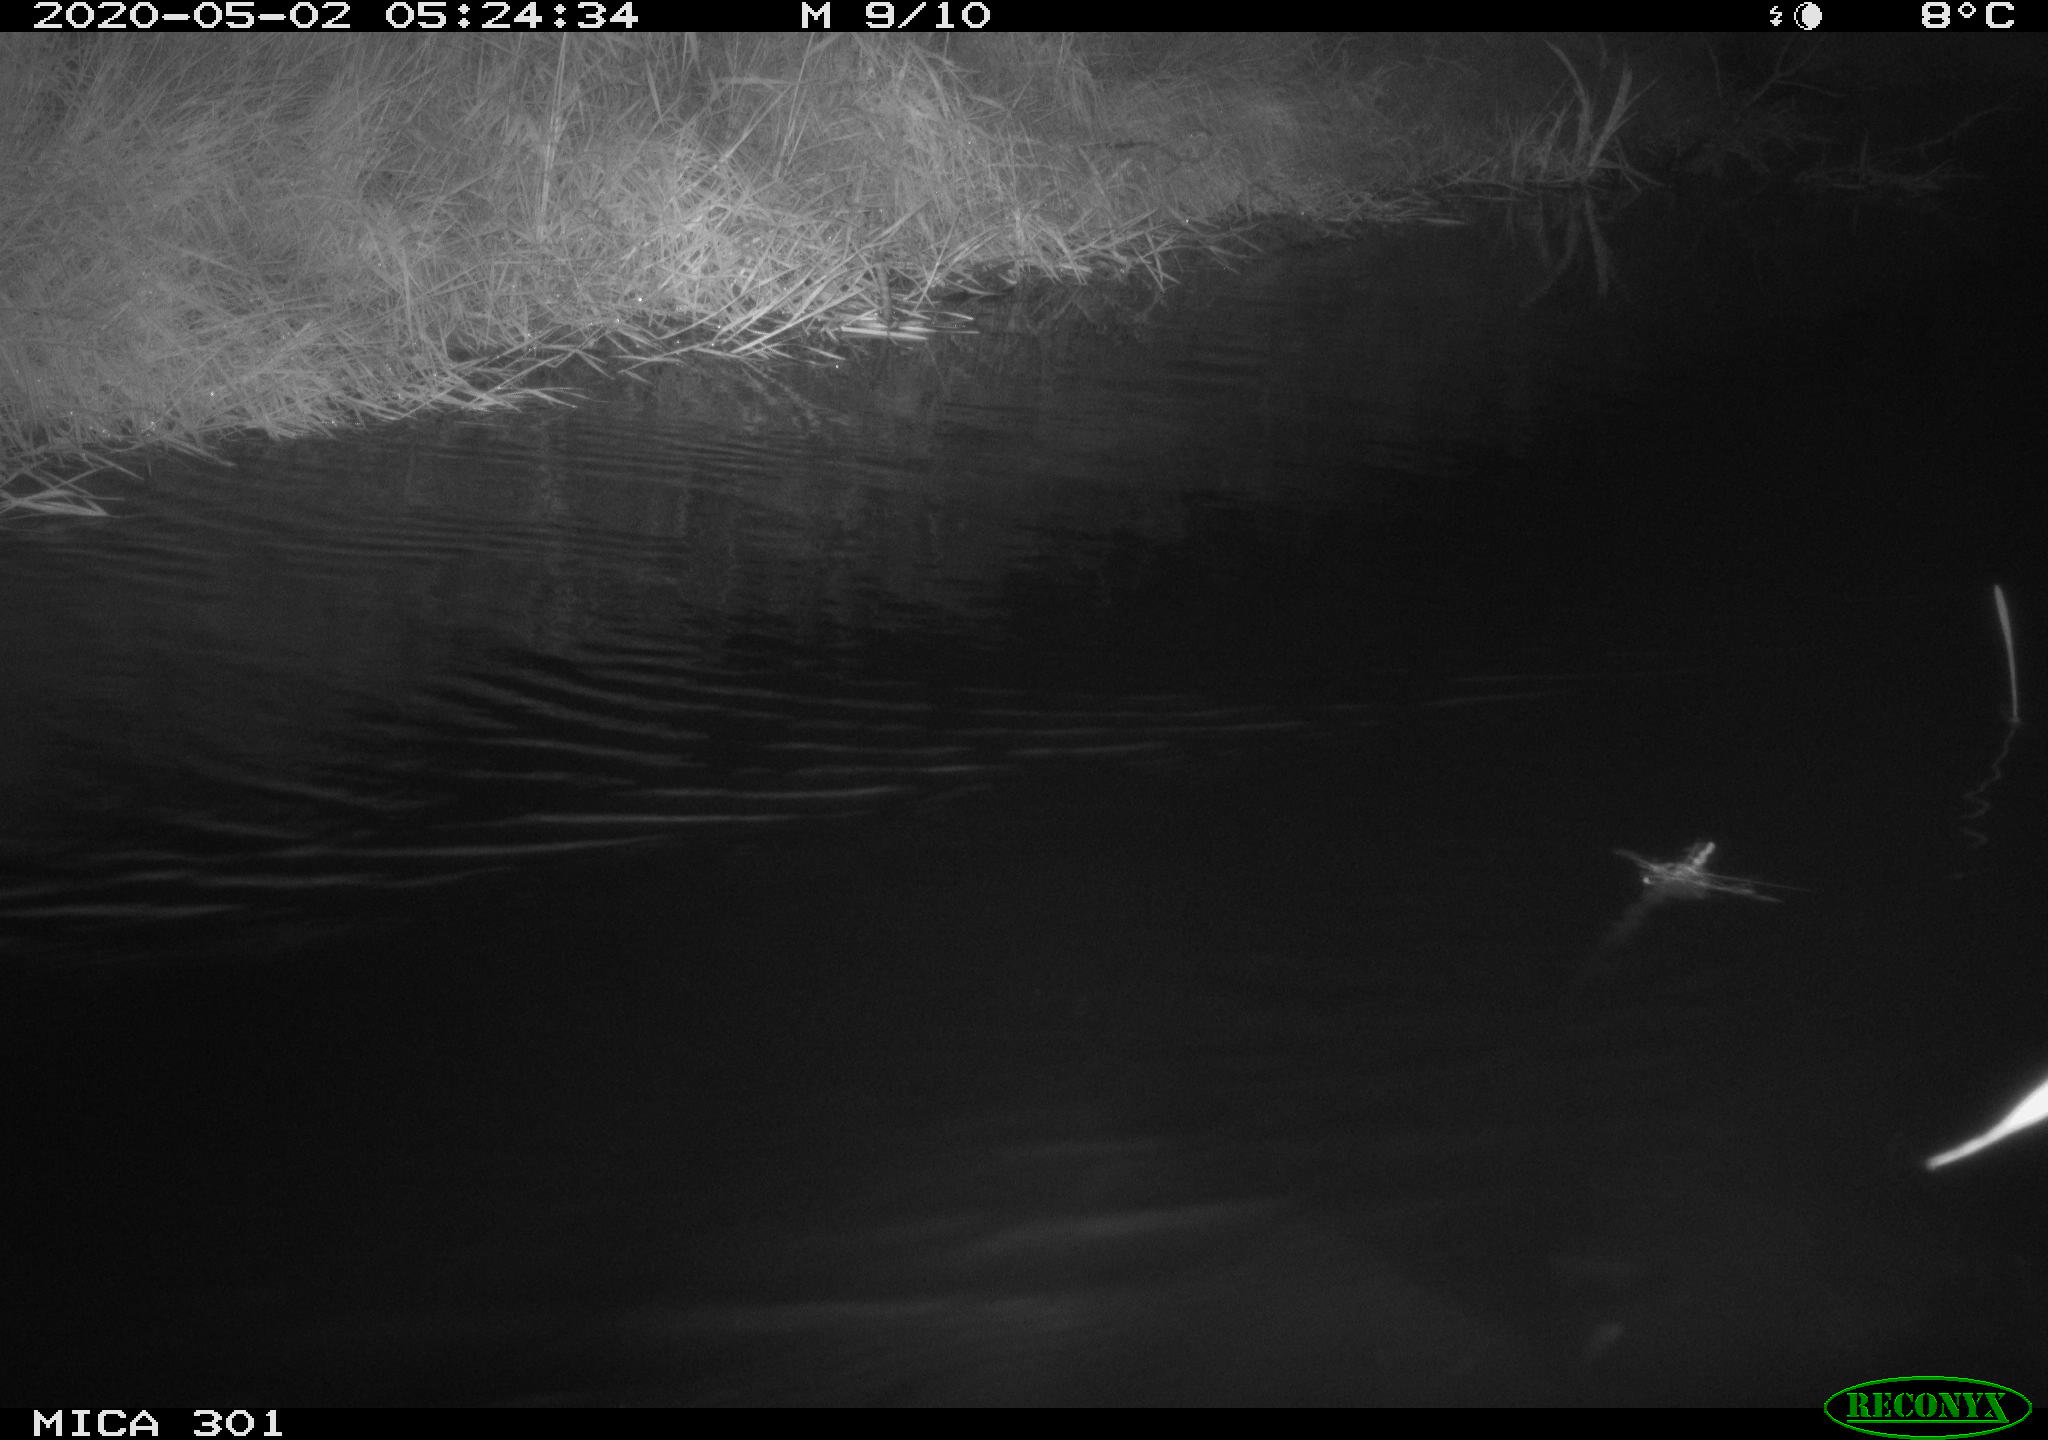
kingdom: Animalia
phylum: Chordata
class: Aves
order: Anseriformes
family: Anatidae
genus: Mareca
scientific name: Mareca strepera
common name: Gadwall
